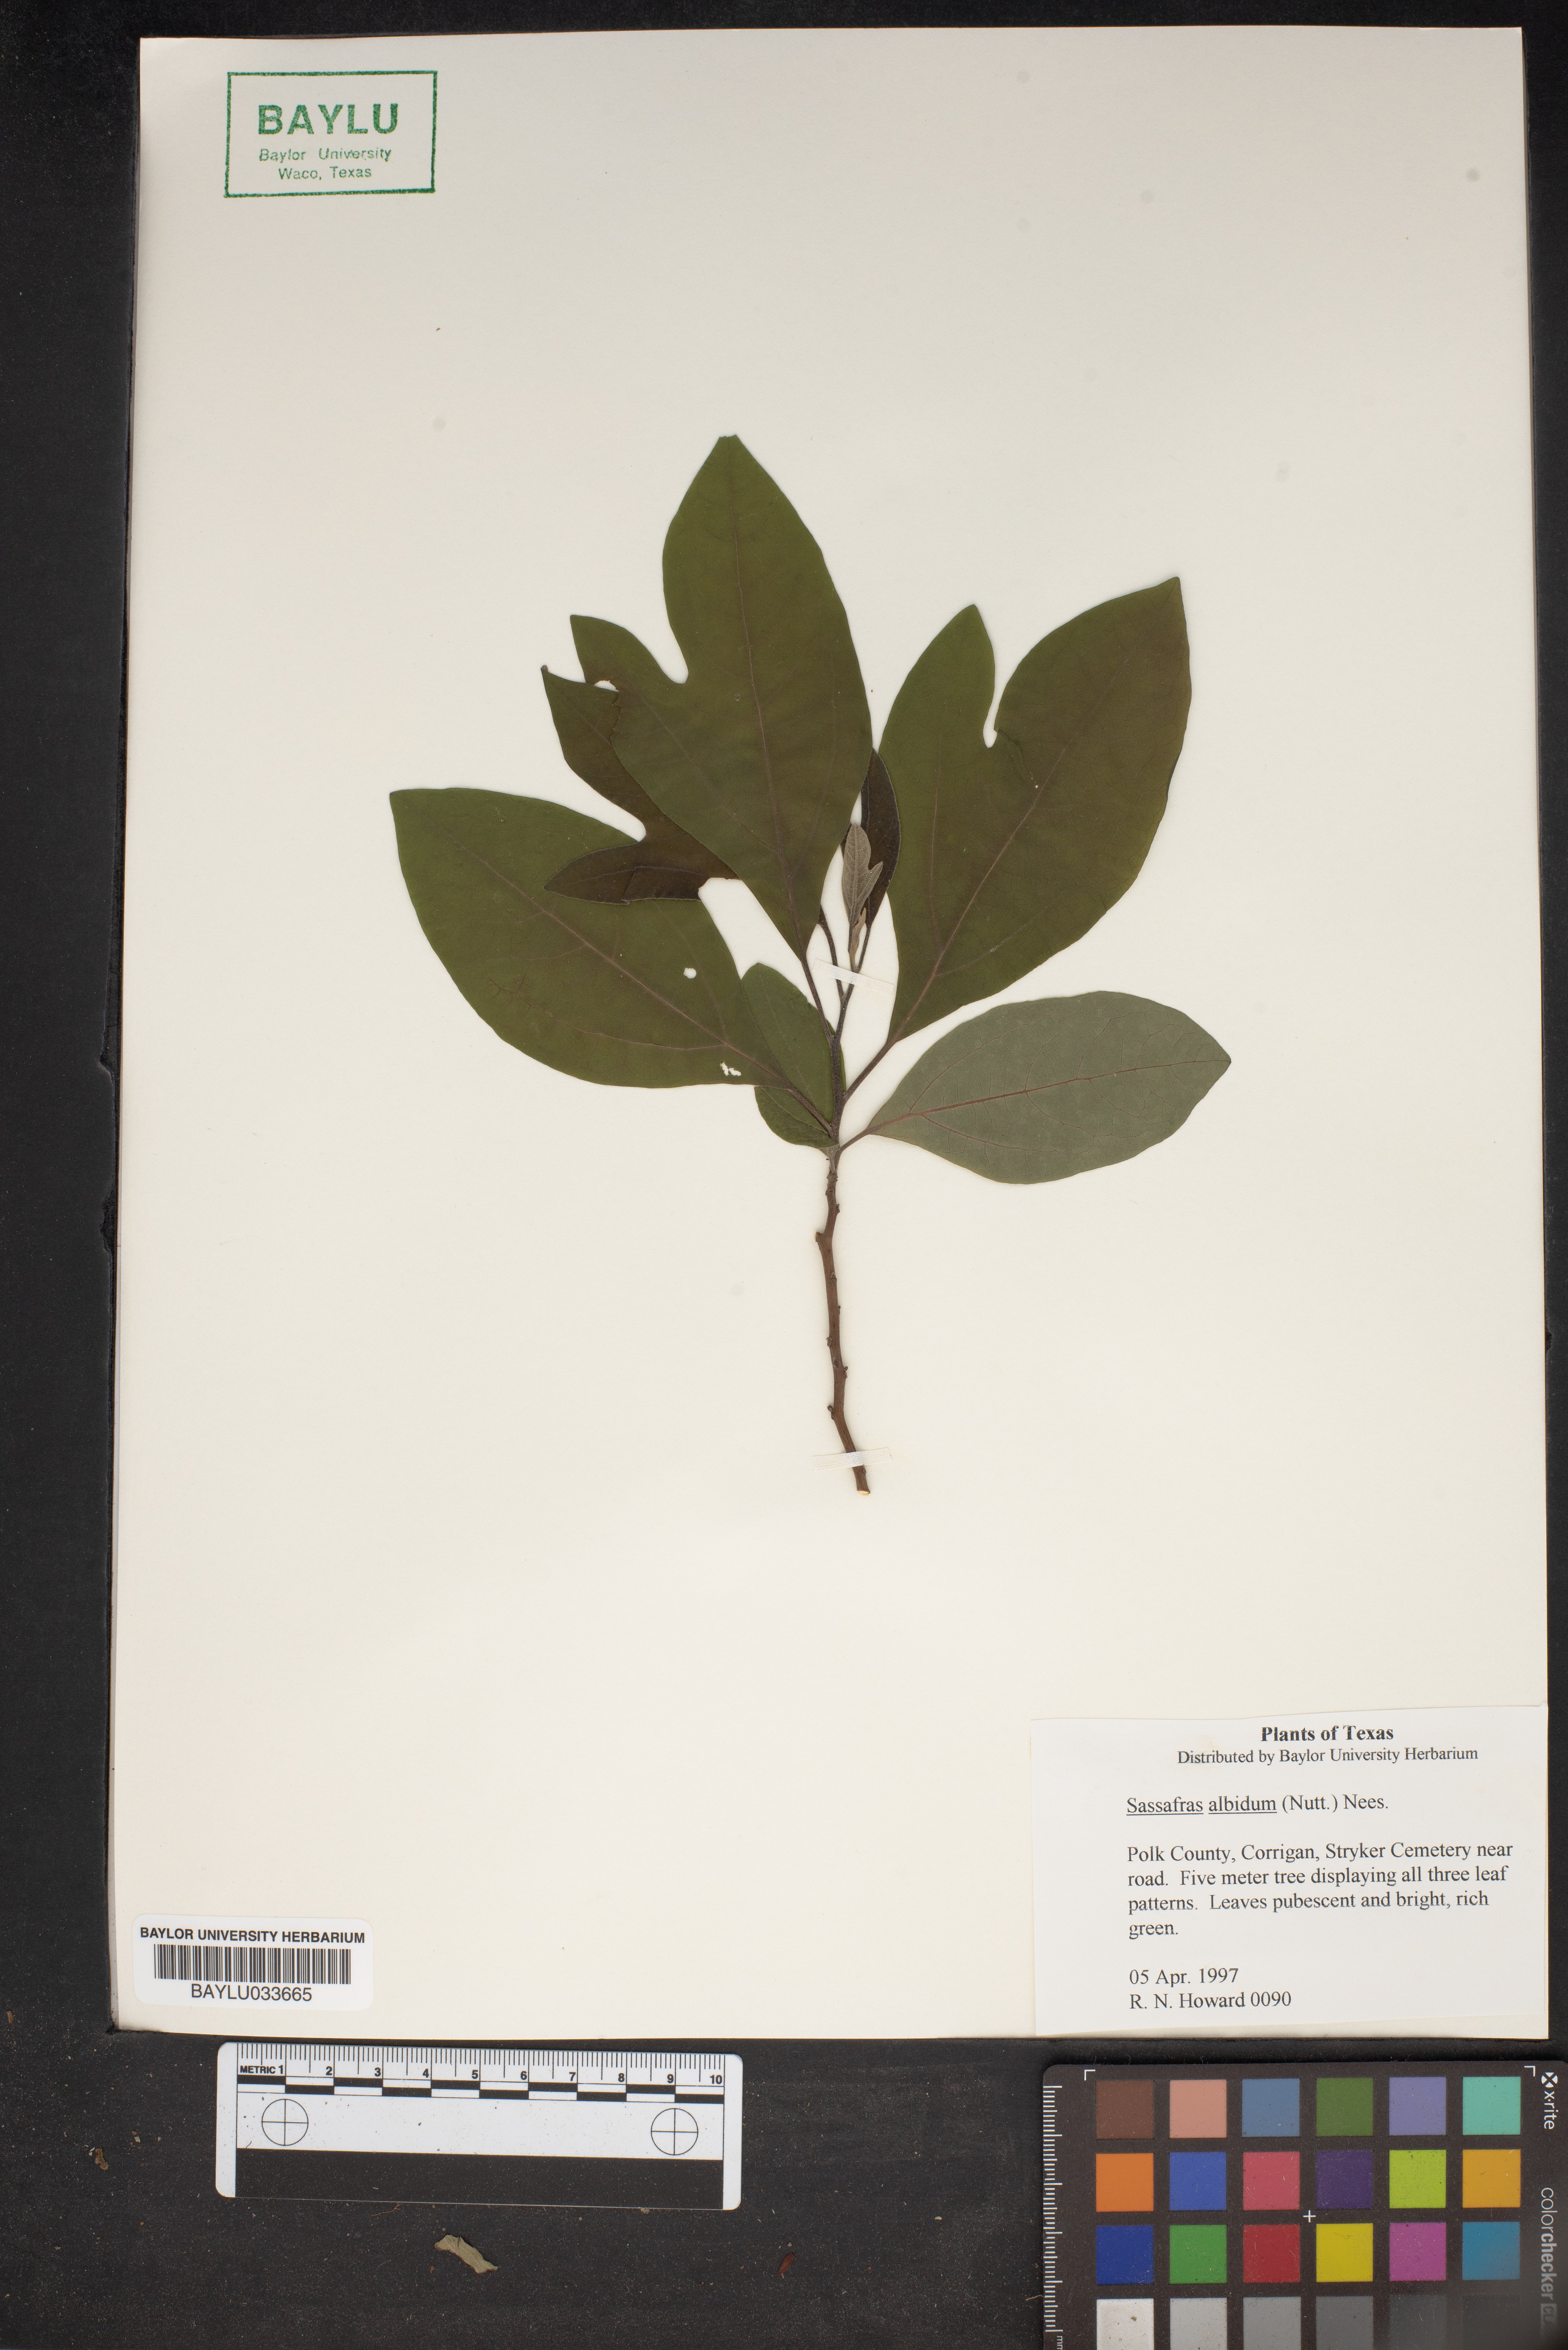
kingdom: Plantae
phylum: Tracheophyta
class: Magnoliopsida
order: Laurales
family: Lauraceae
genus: Sassafras
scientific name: Sassafras albidum
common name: Sassafras
